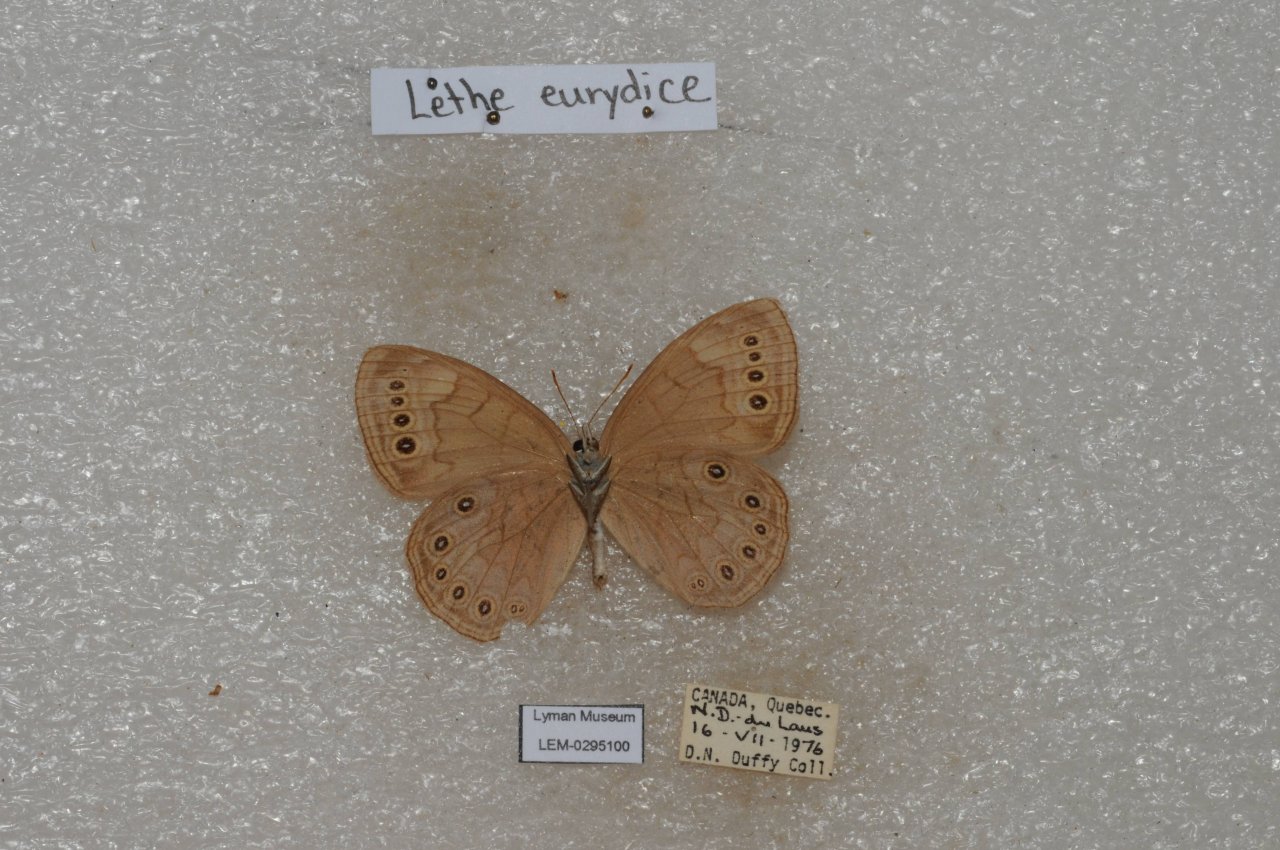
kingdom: Animalia
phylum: Arthropoda
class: Insecta
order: Lepidoptera
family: Nymphalidae
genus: Lethe
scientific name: Lethe eurydice
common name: Eyed Brown
